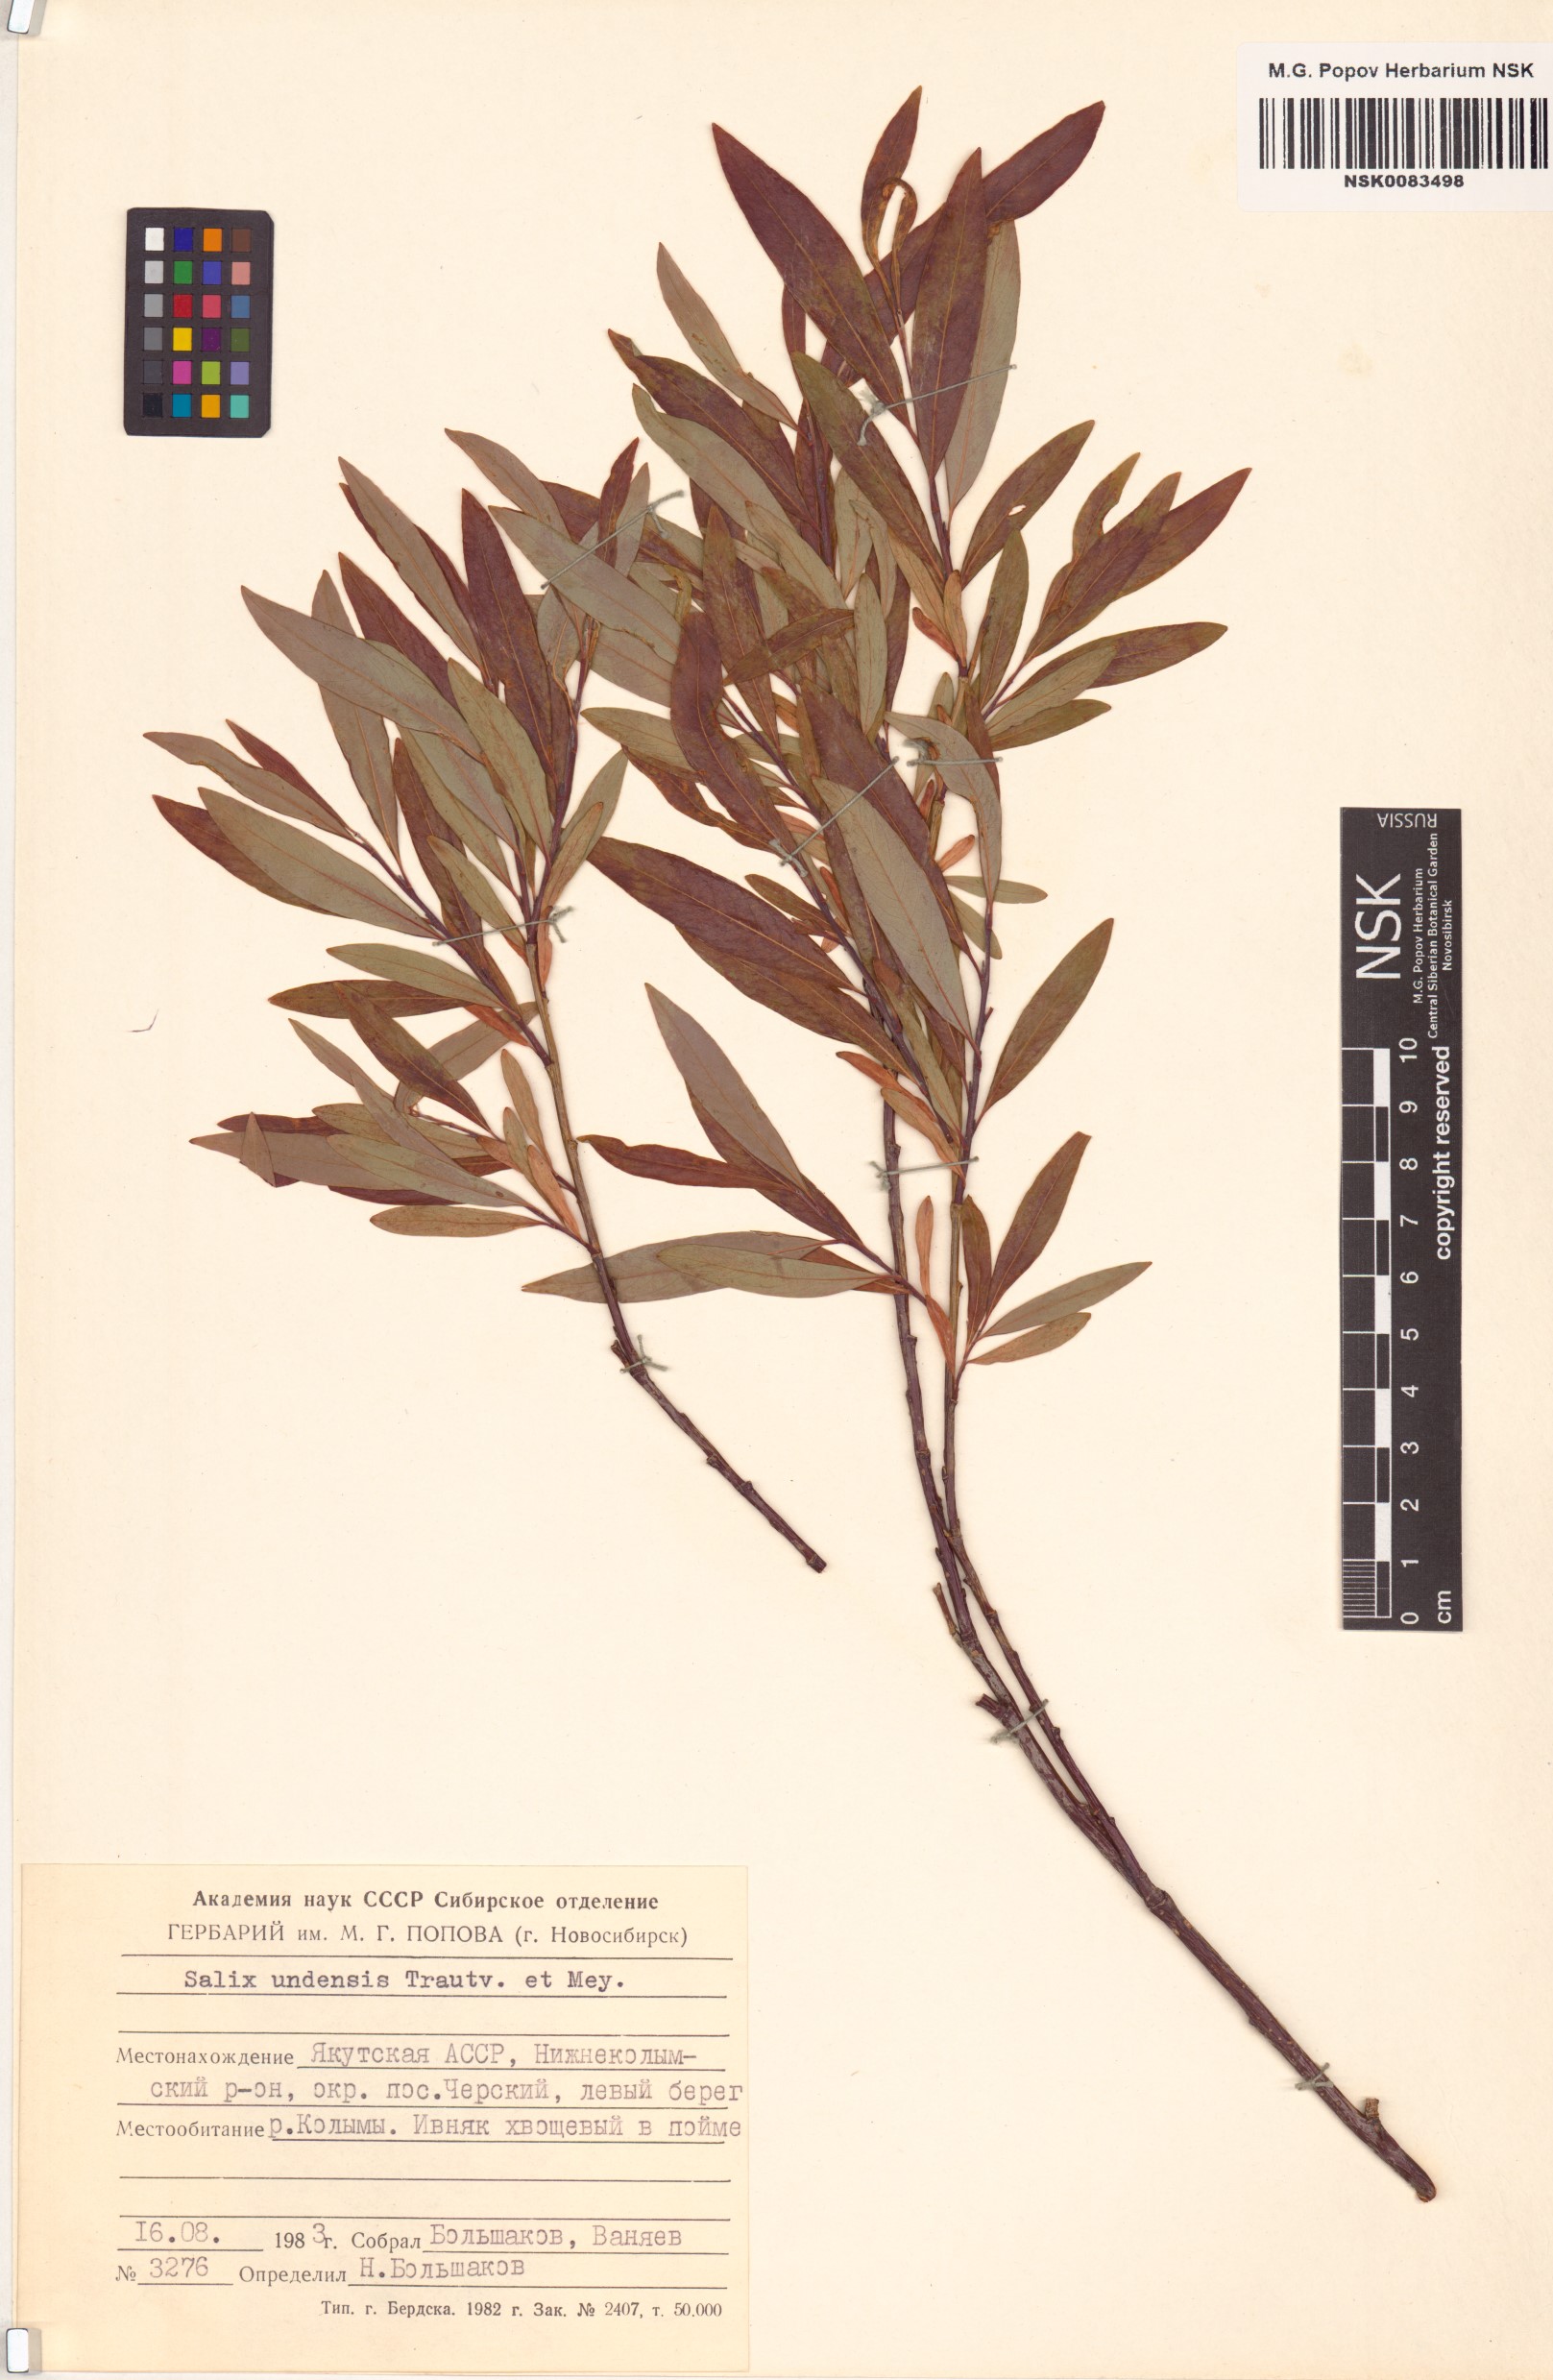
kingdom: Plantae
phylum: Tracheophyta
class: Magnoliopsida
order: Malpighiales
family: Salicaceae
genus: Salix
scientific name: Salix udensis
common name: Sachalin willow
